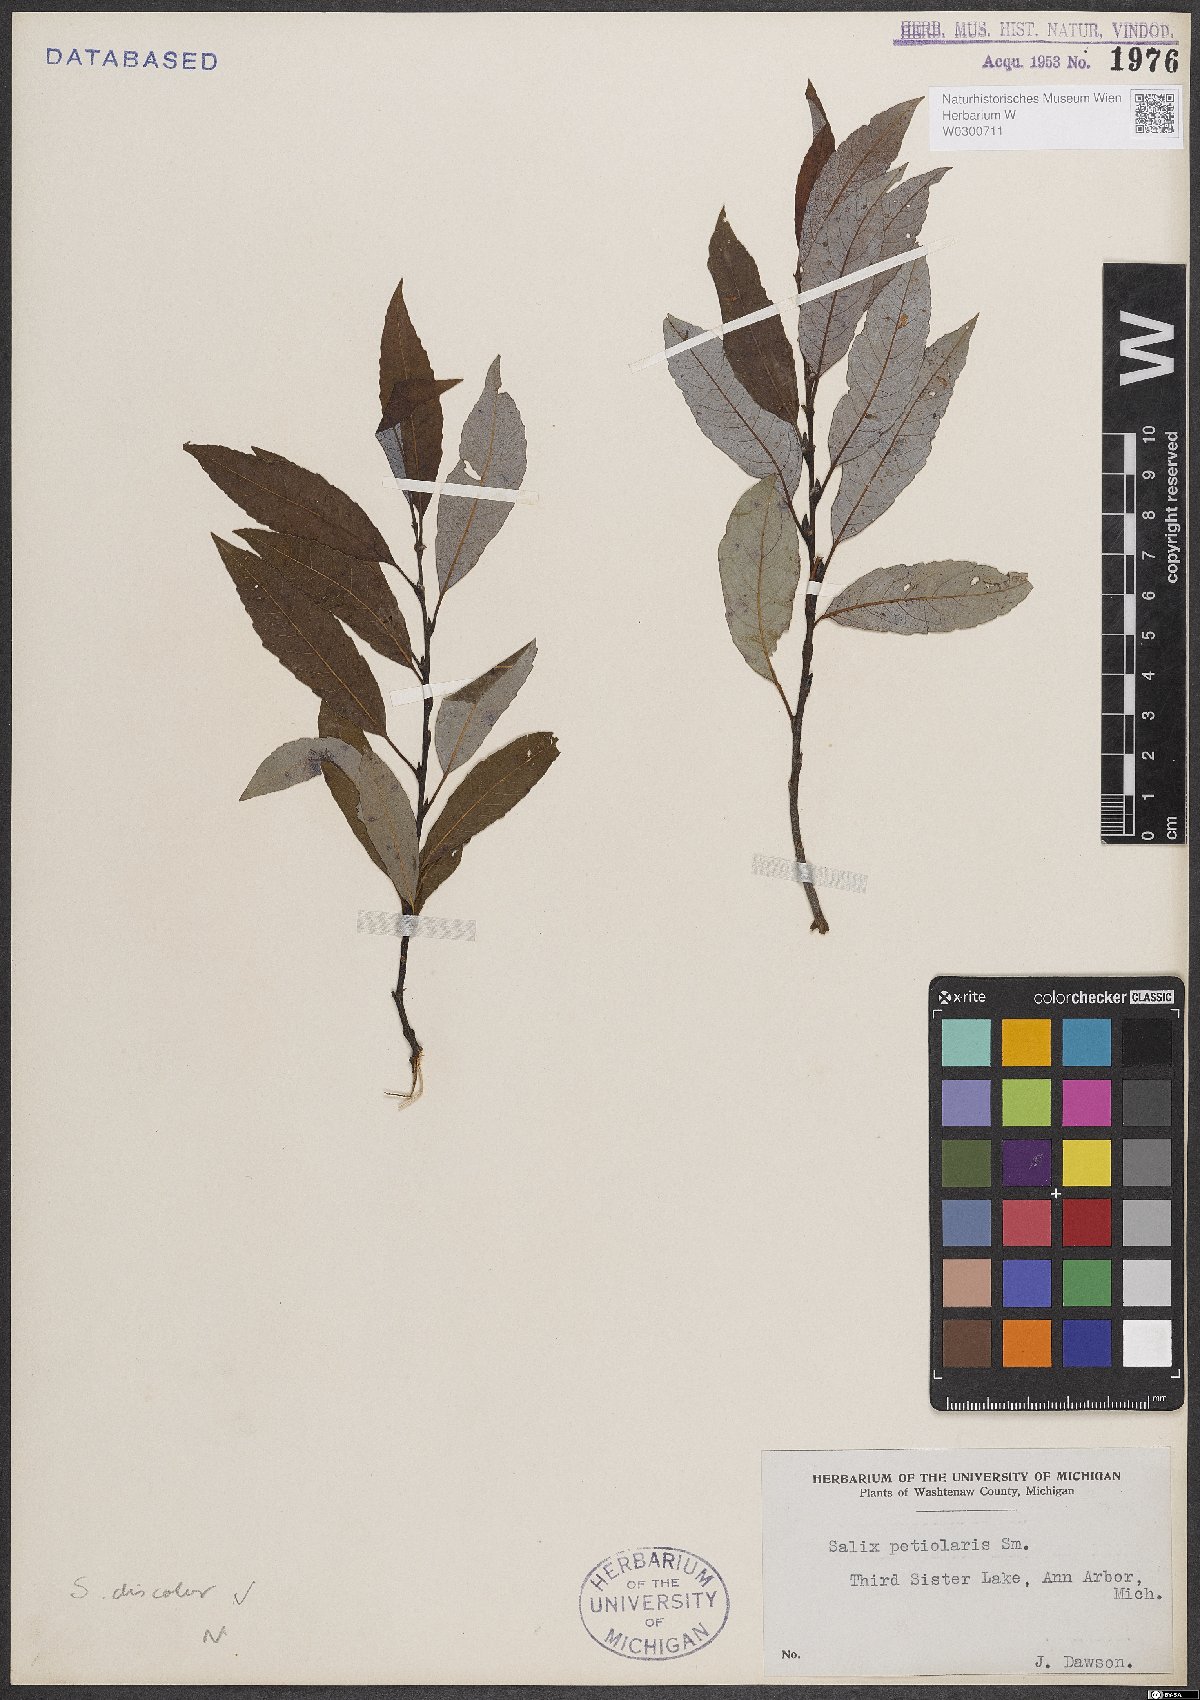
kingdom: Plantae
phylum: Tracheophyta
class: Magnoliopsida
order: Malpighiales
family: Salicaceae
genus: Salix
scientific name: Salix discolor
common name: Glaucous willow
